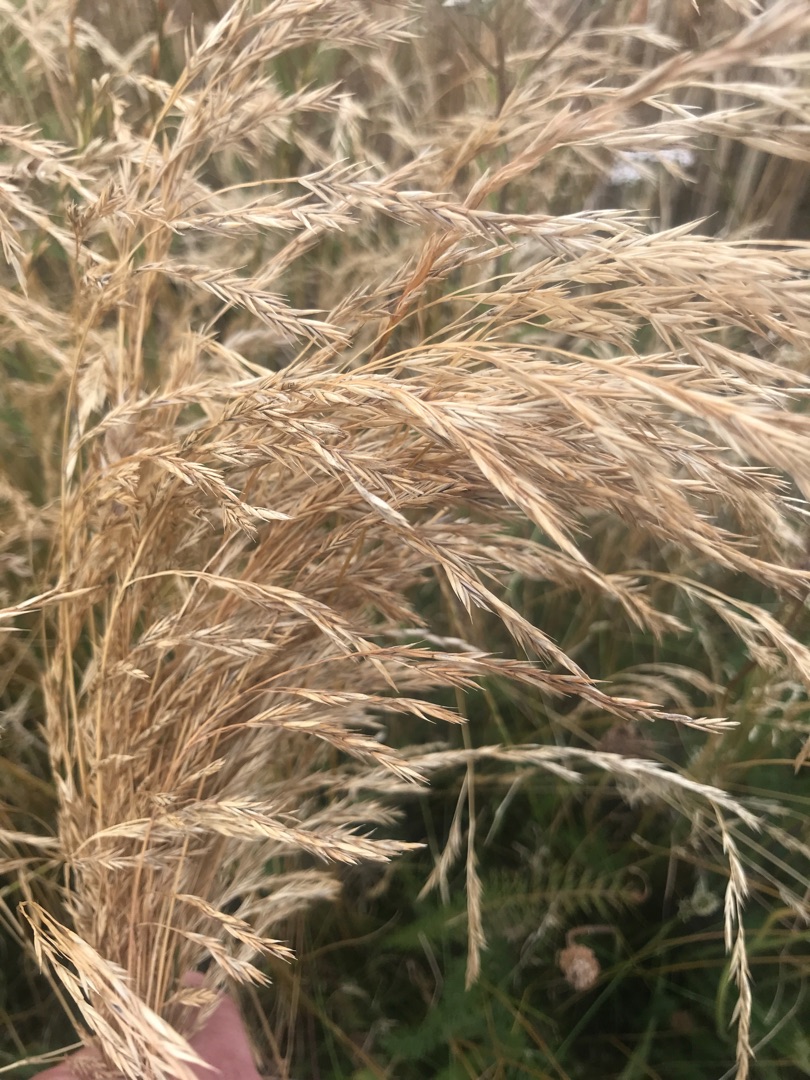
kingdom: Plantae
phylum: Tracheophyta
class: Liliopsida
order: Poales
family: Poaceae
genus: Festuca
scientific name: Festuca
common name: Svingelslægten
